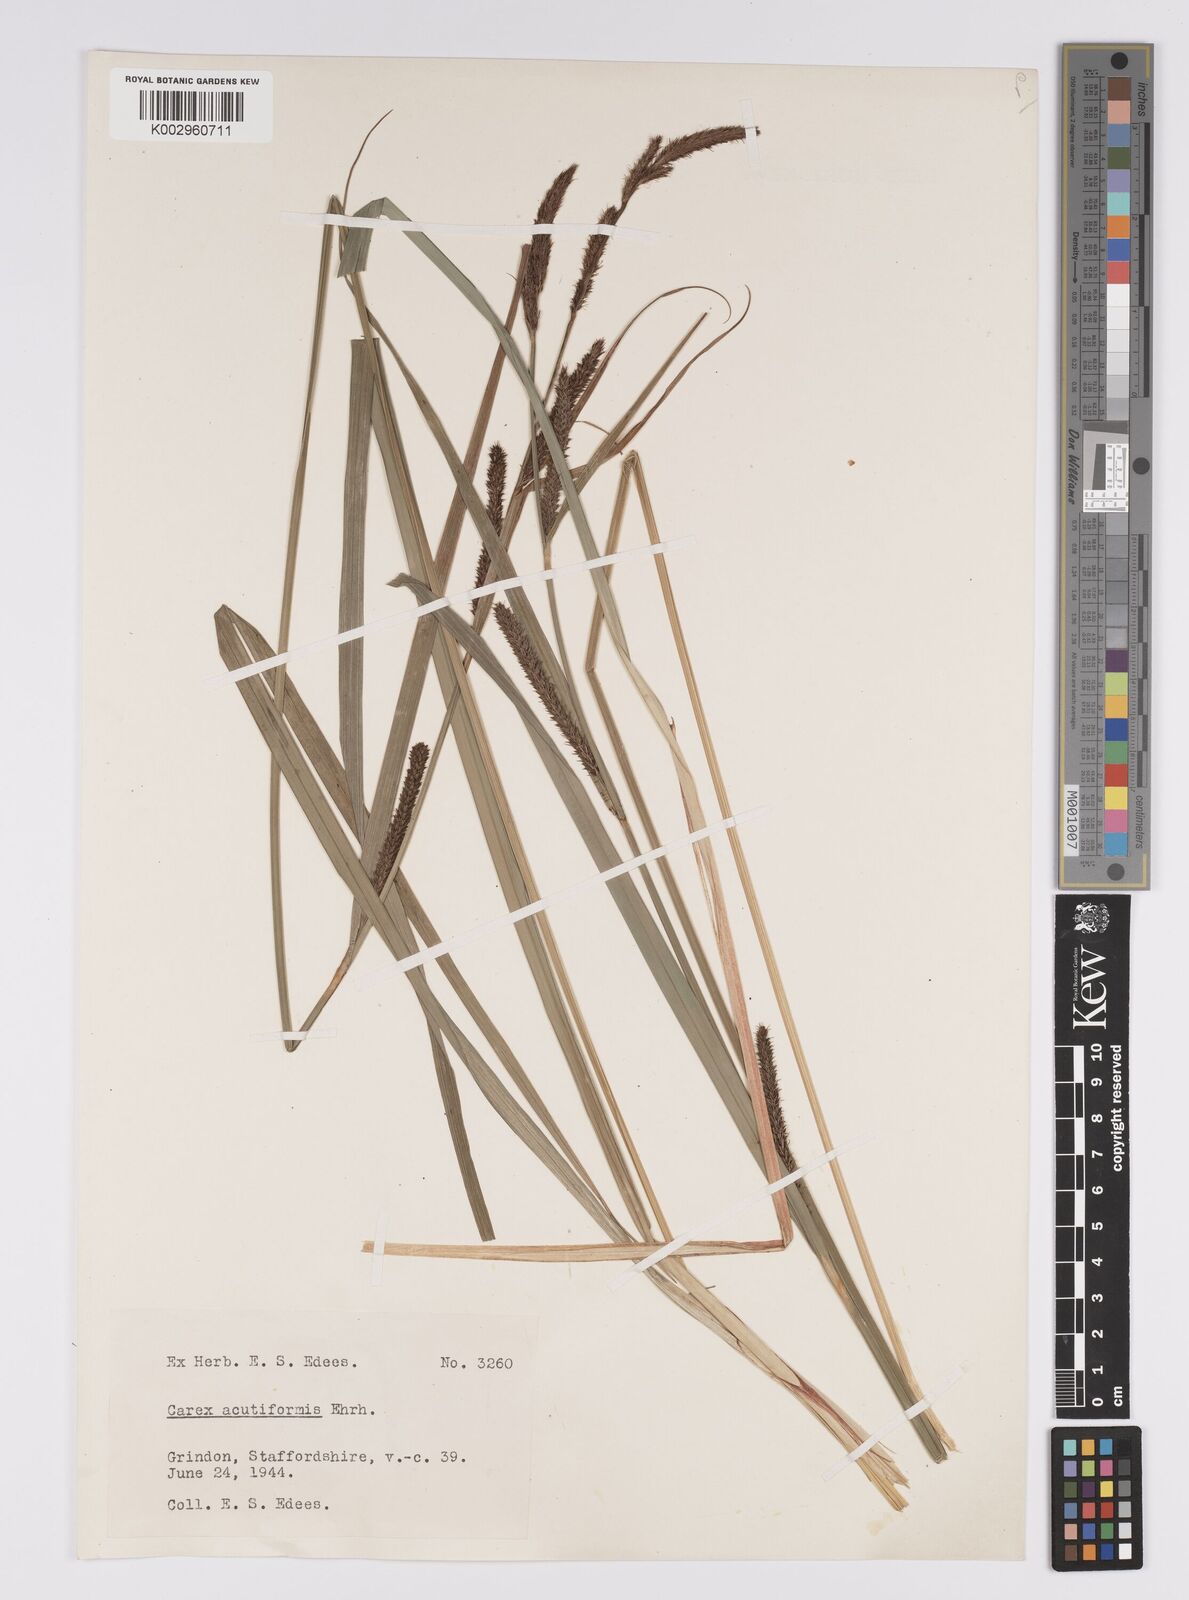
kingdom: Plantae
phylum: Tracheophyta
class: Liliopsida
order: Poales
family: Cyperaceae
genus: Carex
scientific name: Carex acutiformis
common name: Lesser pond-sedge
